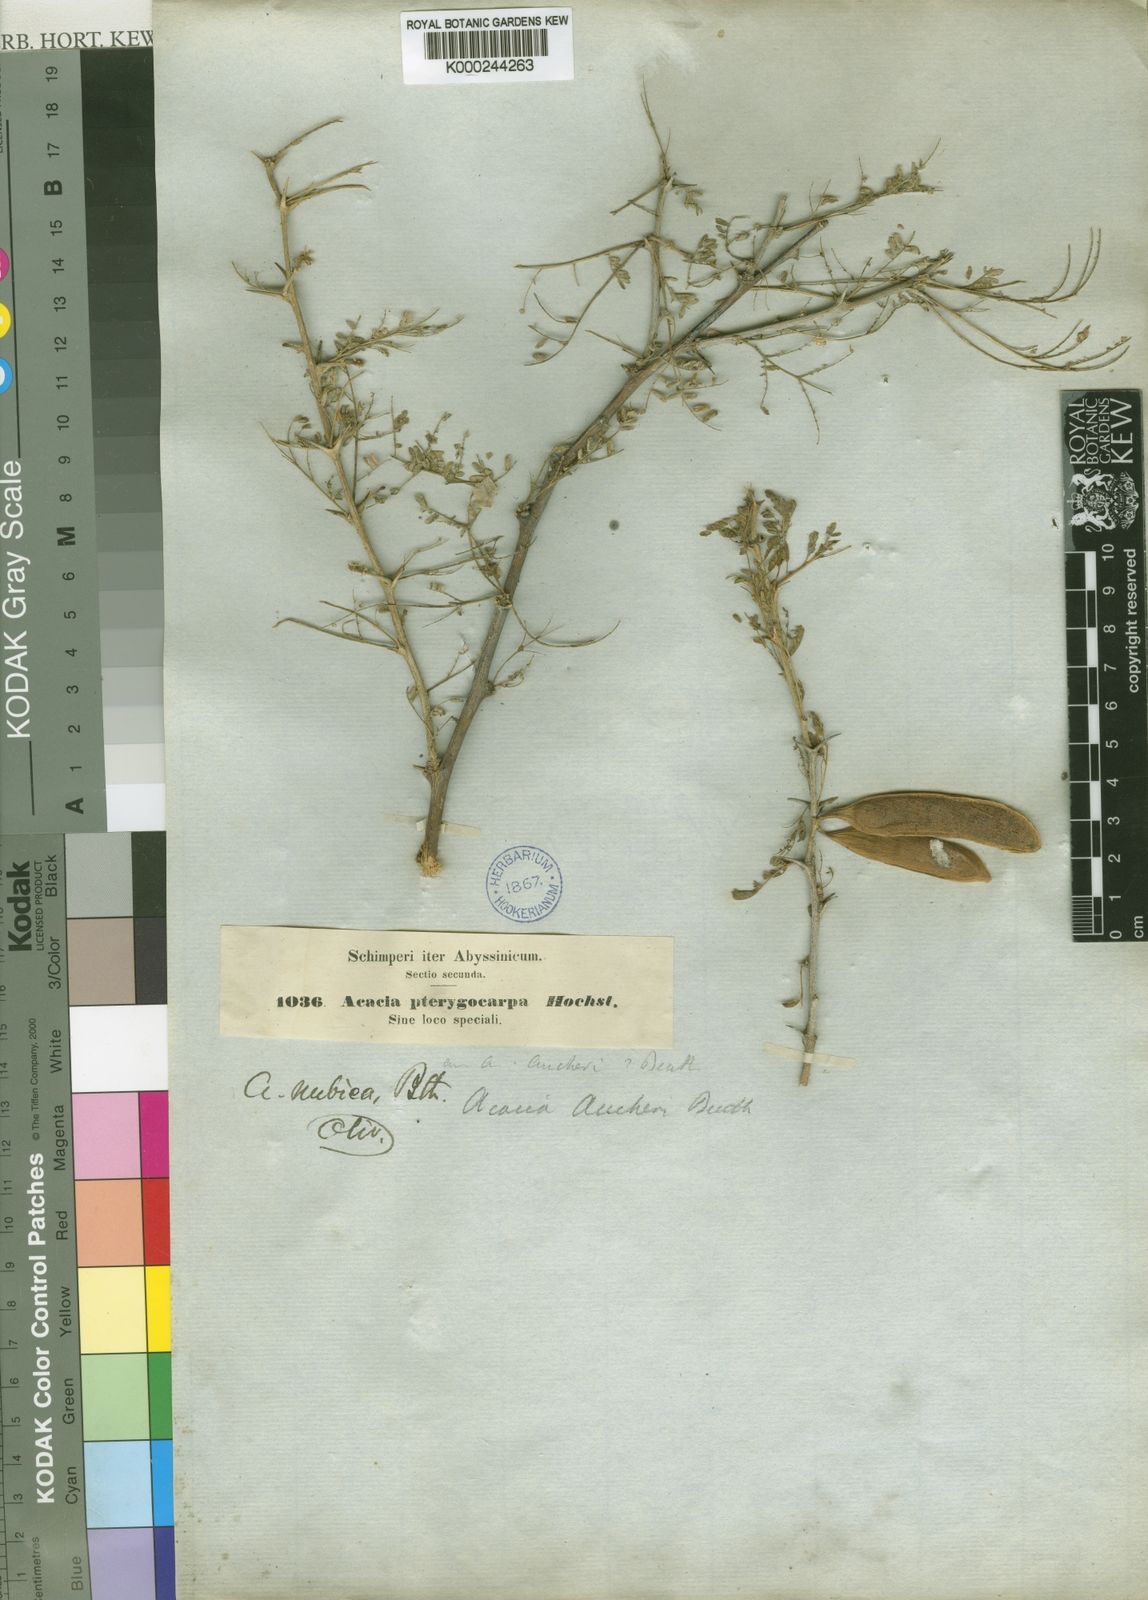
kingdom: Plantae
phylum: Tracheophyta
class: Magnoliopsida
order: Fabales
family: Fabaceae
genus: Vachellia
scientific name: Vachellia oerfota
